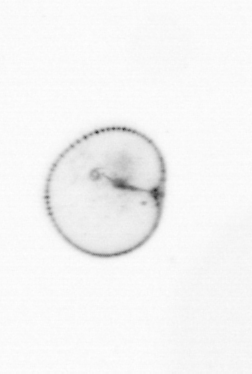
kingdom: Chromista
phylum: Myzozoa
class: Dinophyceae
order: Noctilucales
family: Noctilucaceae
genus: Noctiluca
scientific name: Noctiluca scintillans
